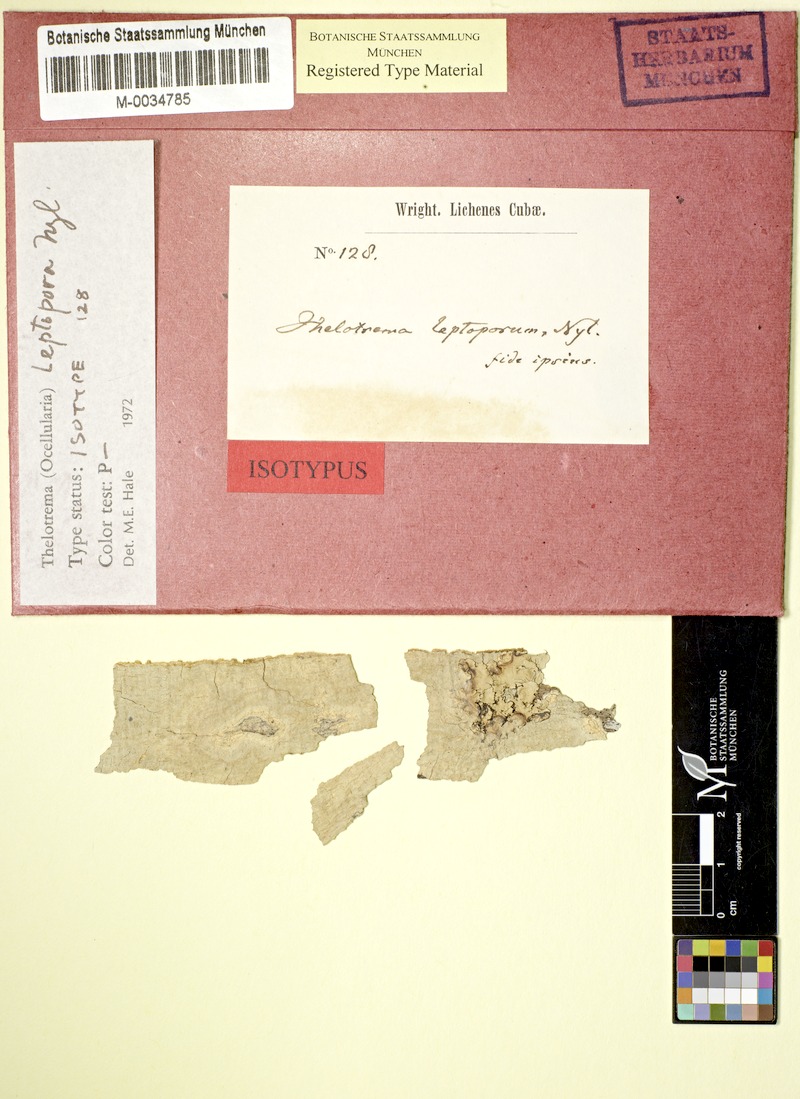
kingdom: Fungi
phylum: Ascomycota
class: Lecanoromycetes
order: Ostropales
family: Graphidaceae
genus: Myriotrema
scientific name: Myriotrema glauculum
